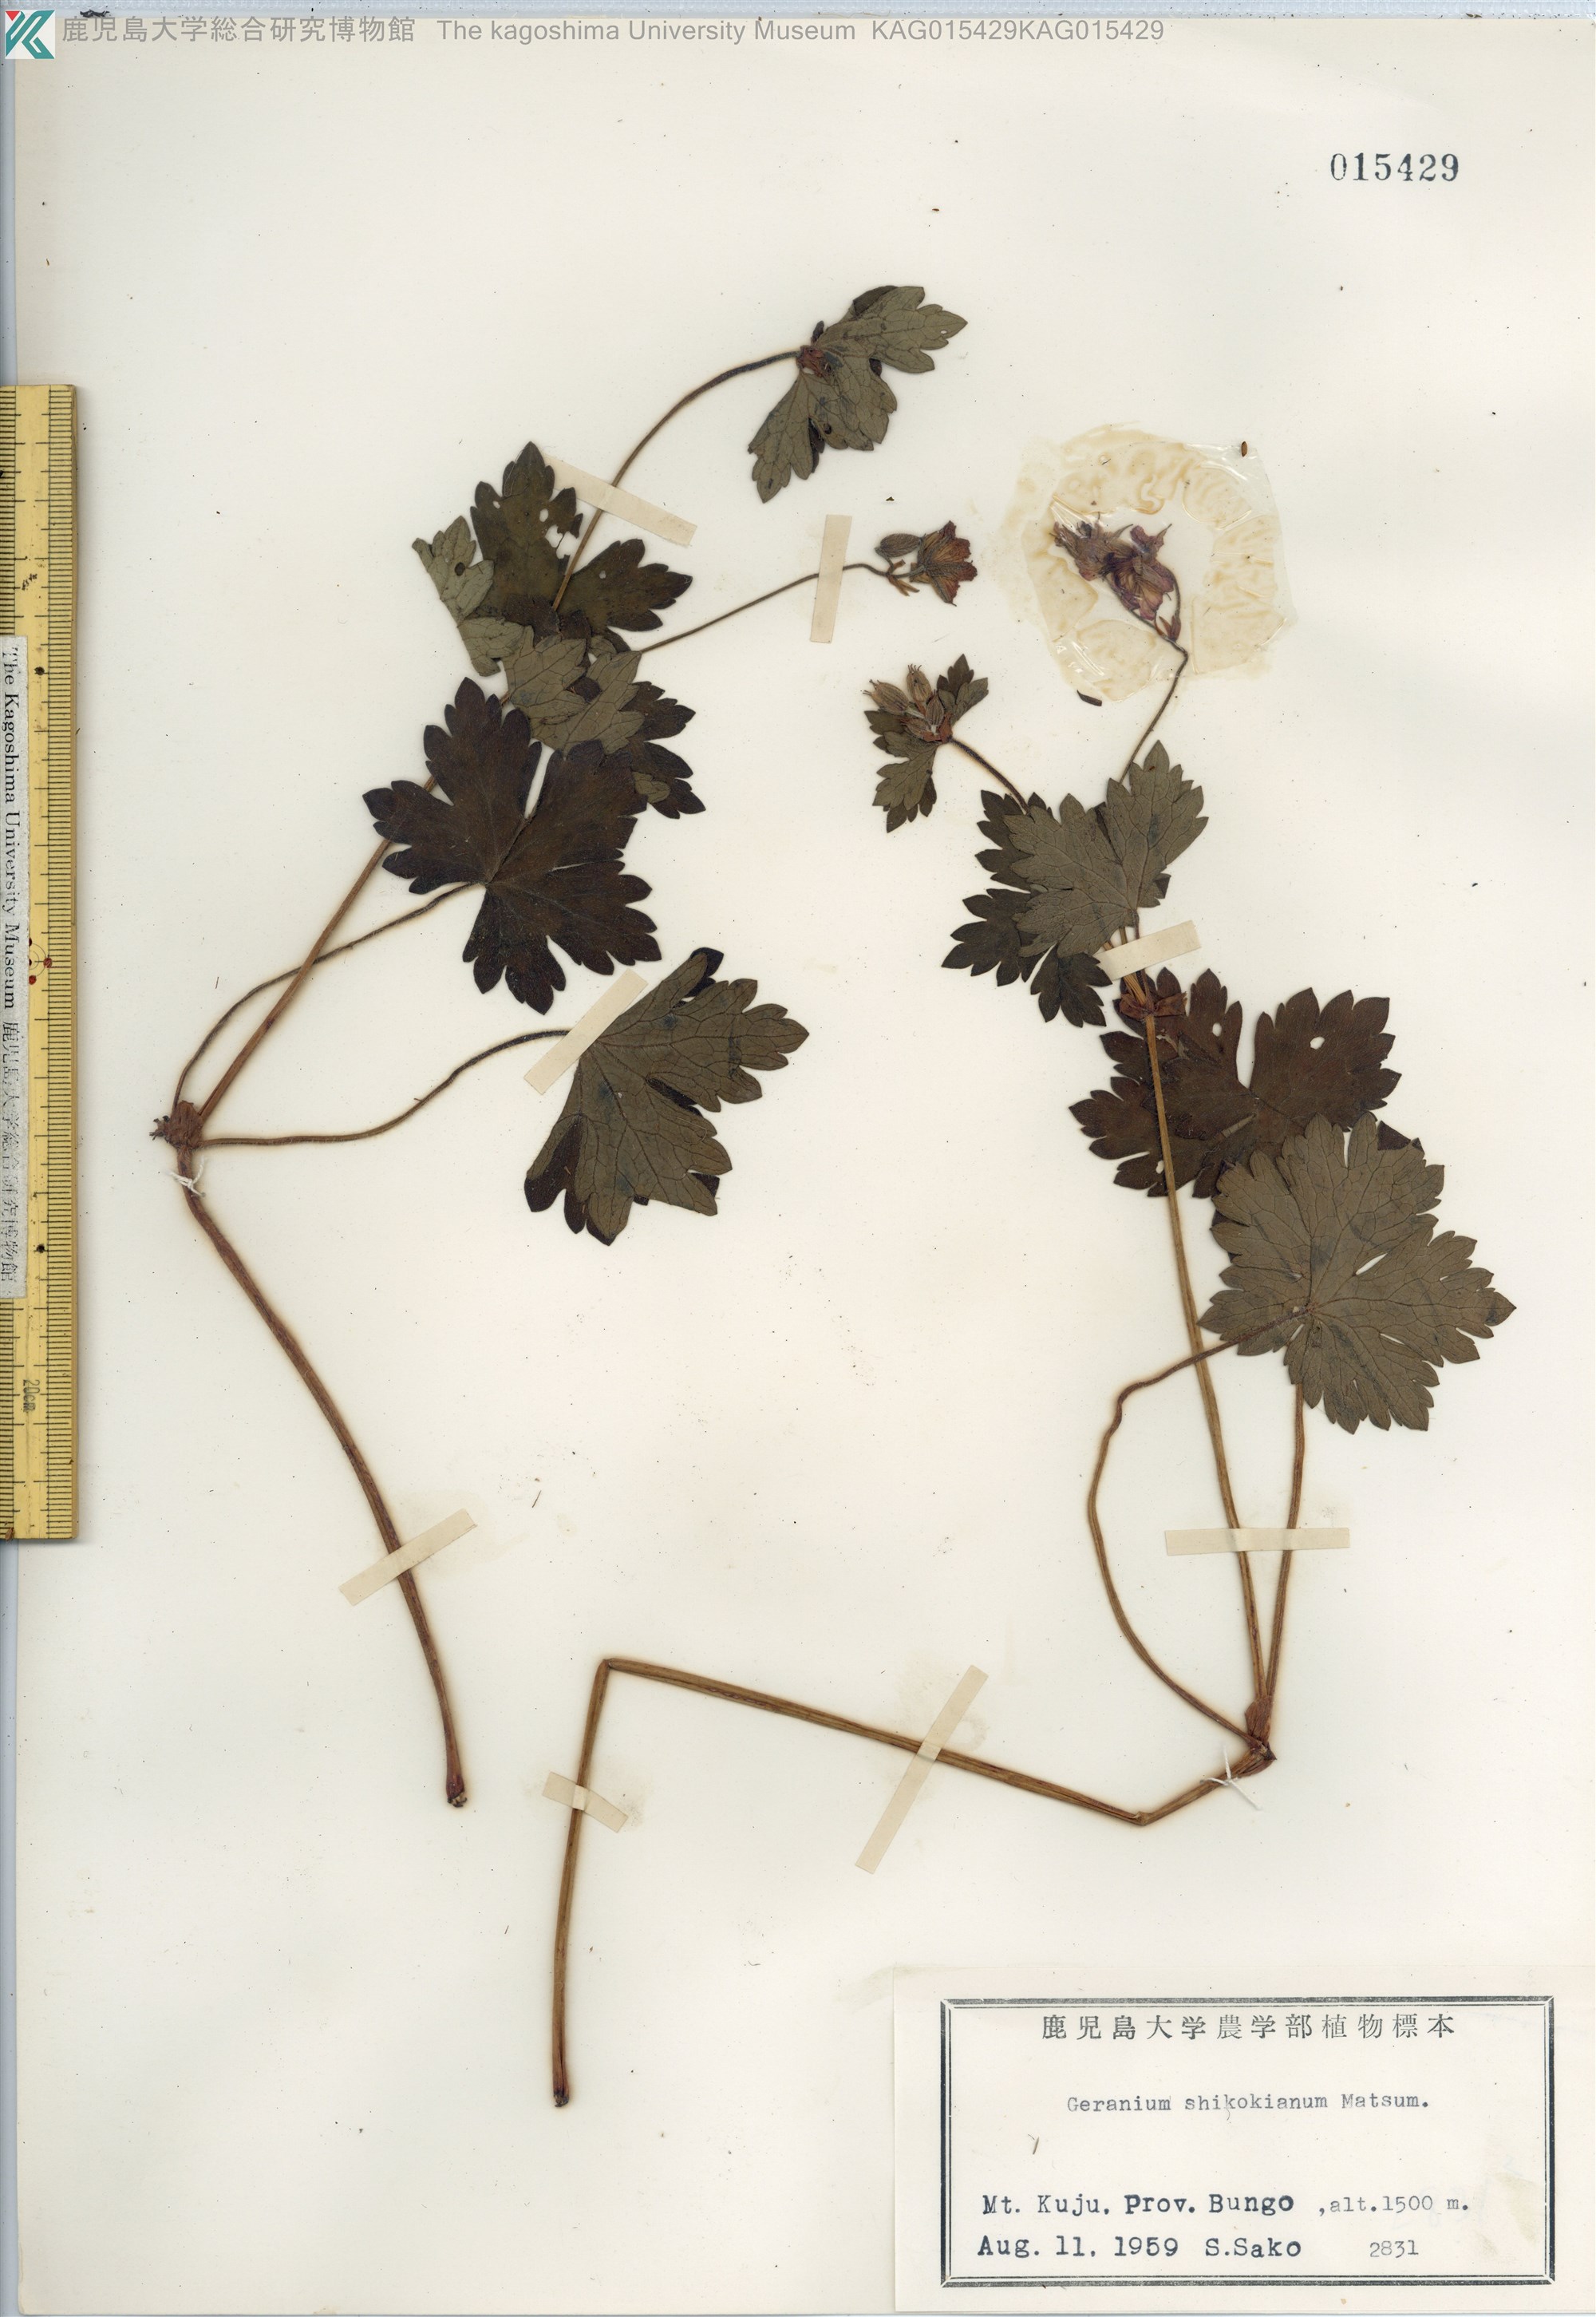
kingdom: Plantae
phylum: Tracheophyta
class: Magnoliopsida
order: Geraniales
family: Geraniaceae
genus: Geranium
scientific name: Geranium shikokianum
